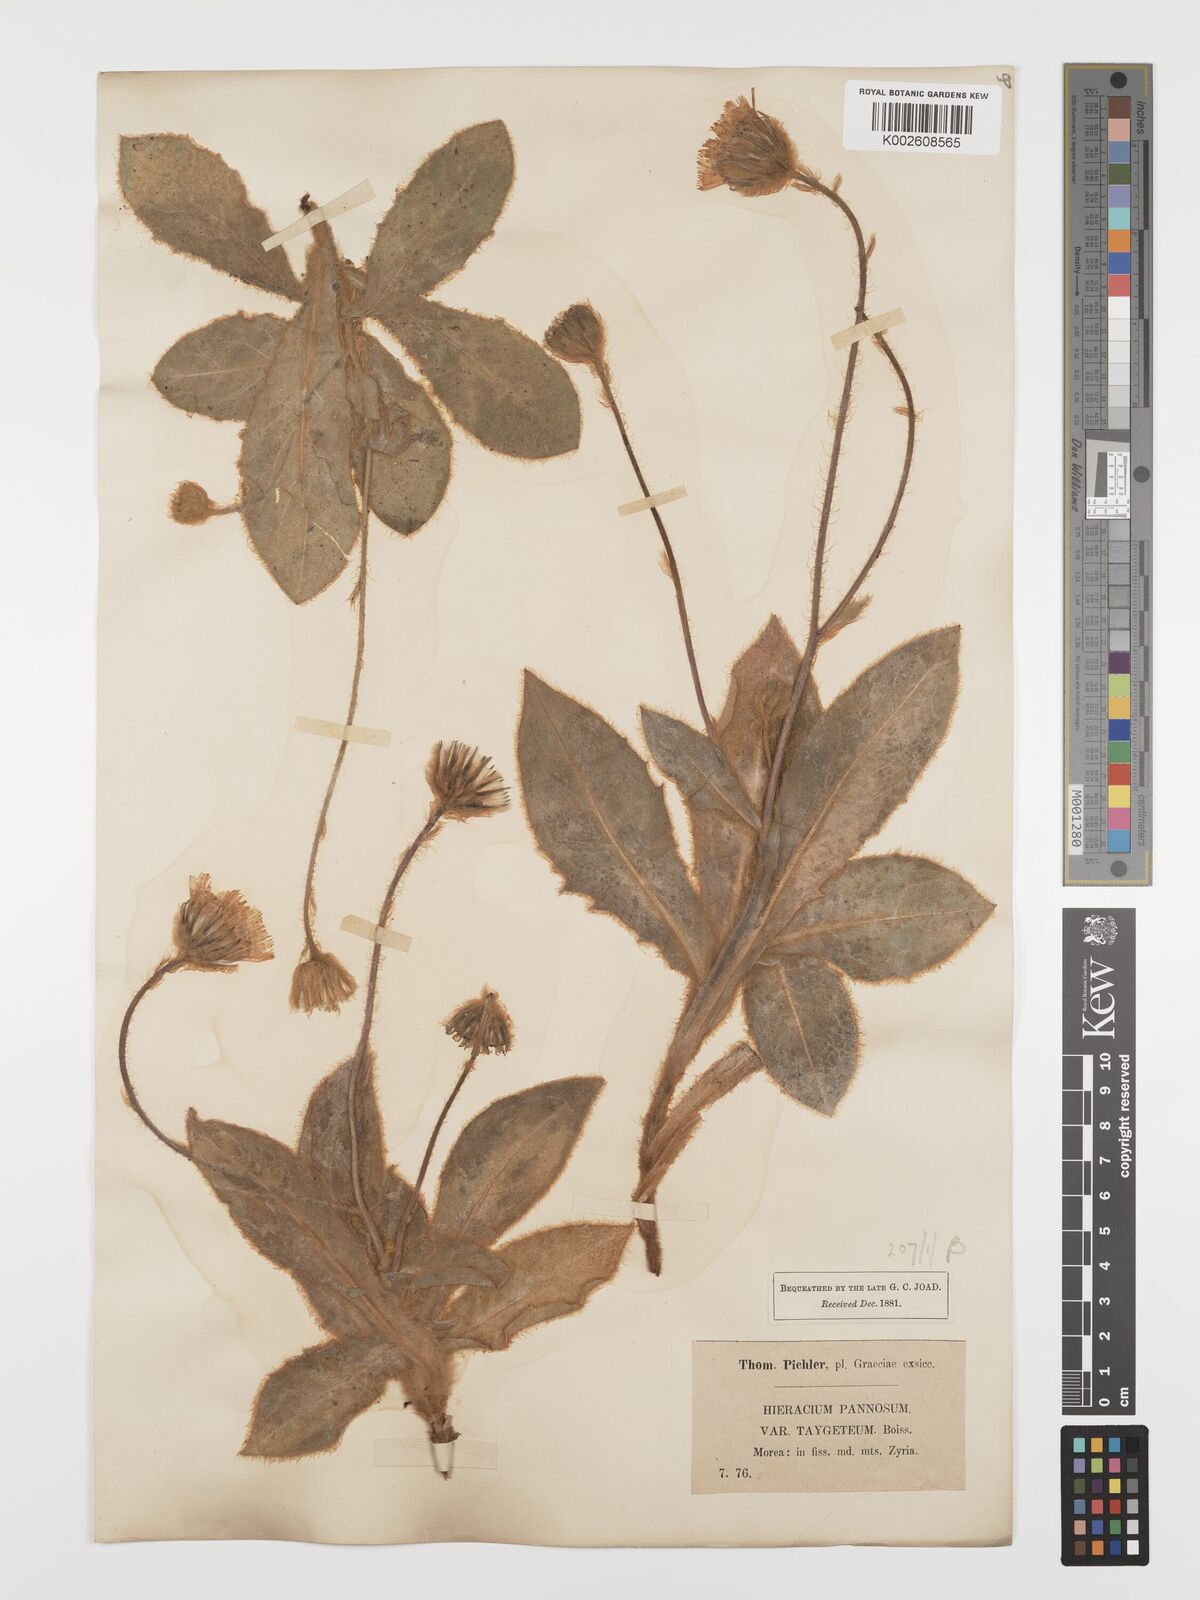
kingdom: Plantae
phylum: Tracheophyta
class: Magnoliopsida
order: Asterales
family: Asteraceae
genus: Hieracium
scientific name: Hieracium pannosum
